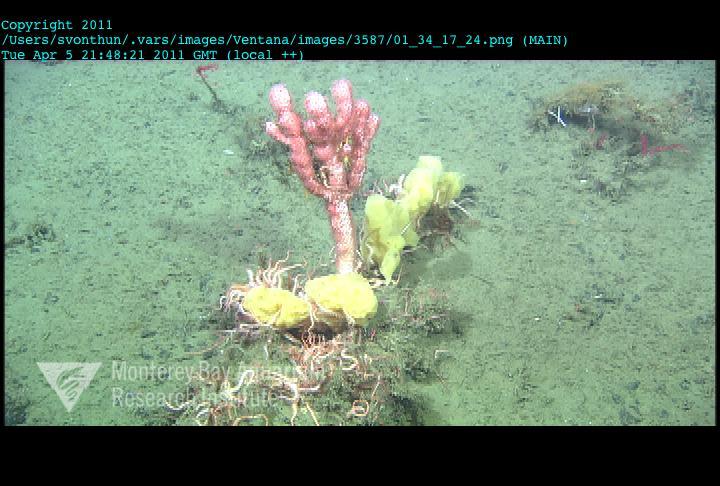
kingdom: Animalia
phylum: Porifera
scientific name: Porifera
